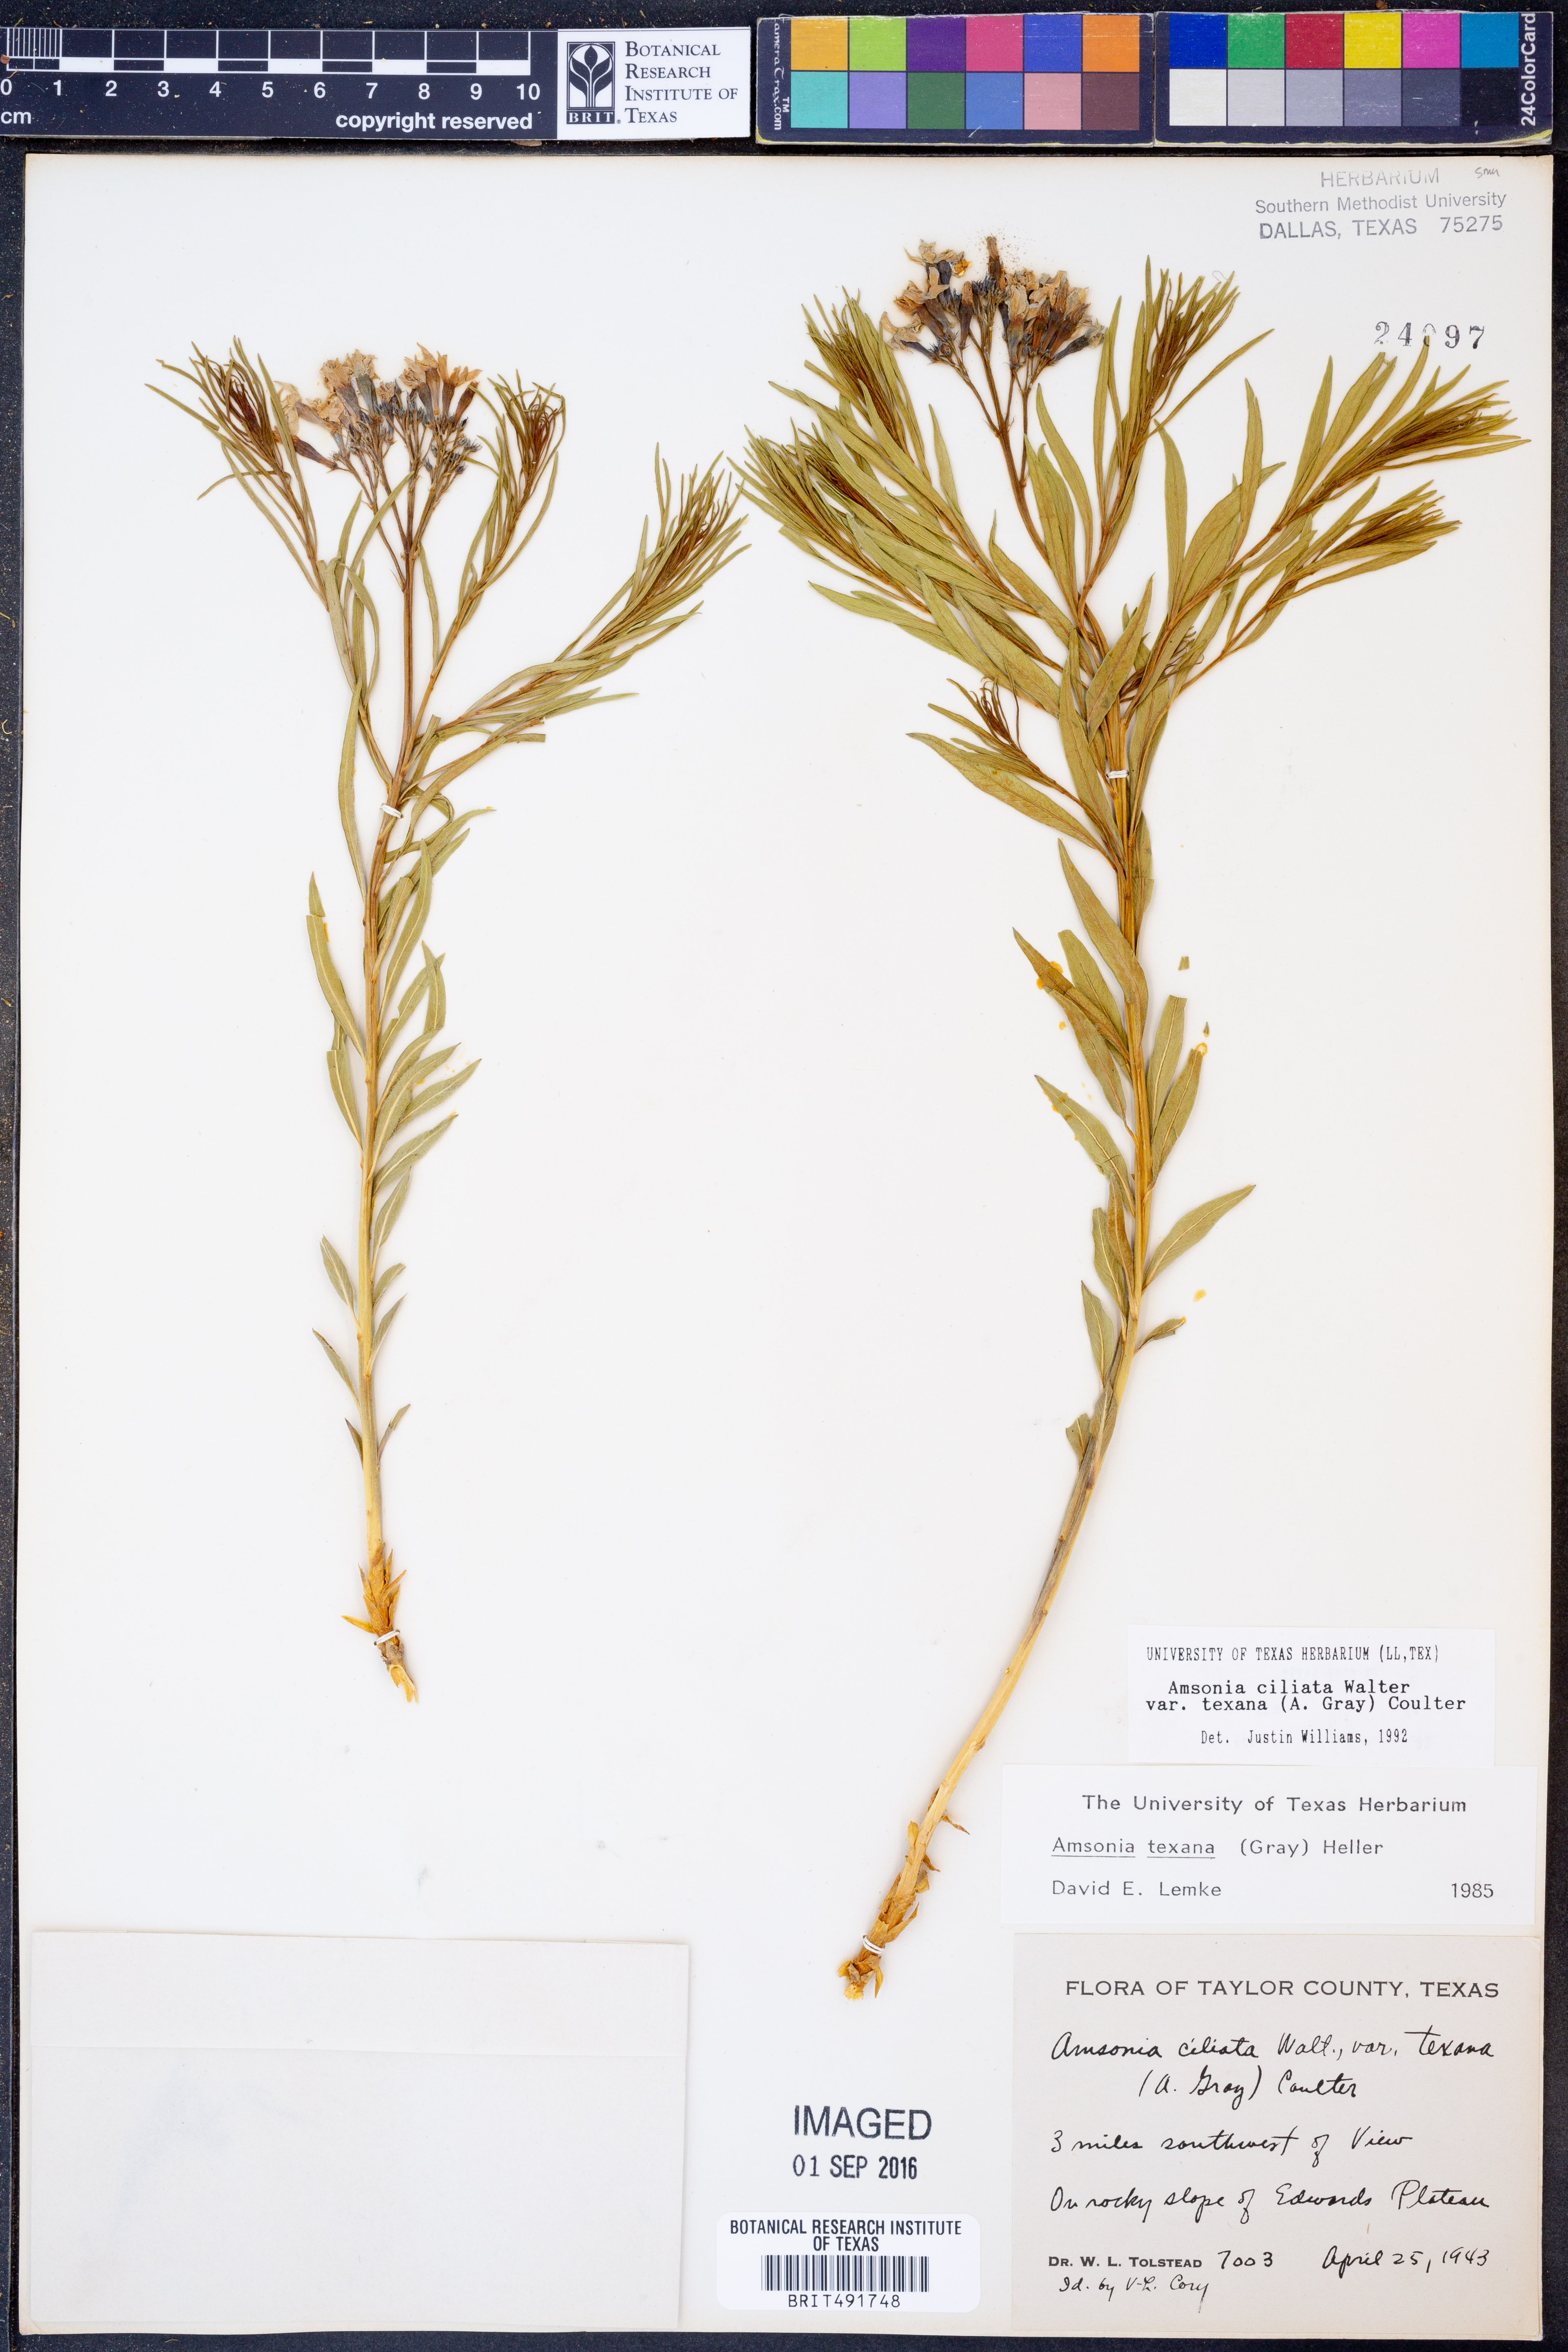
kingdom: Plantae
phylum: Tracheophyta
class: Magnoliopsida
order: Gentianales
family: Apocynaceae
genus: Amsonia
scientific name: Amsonia ciliata
